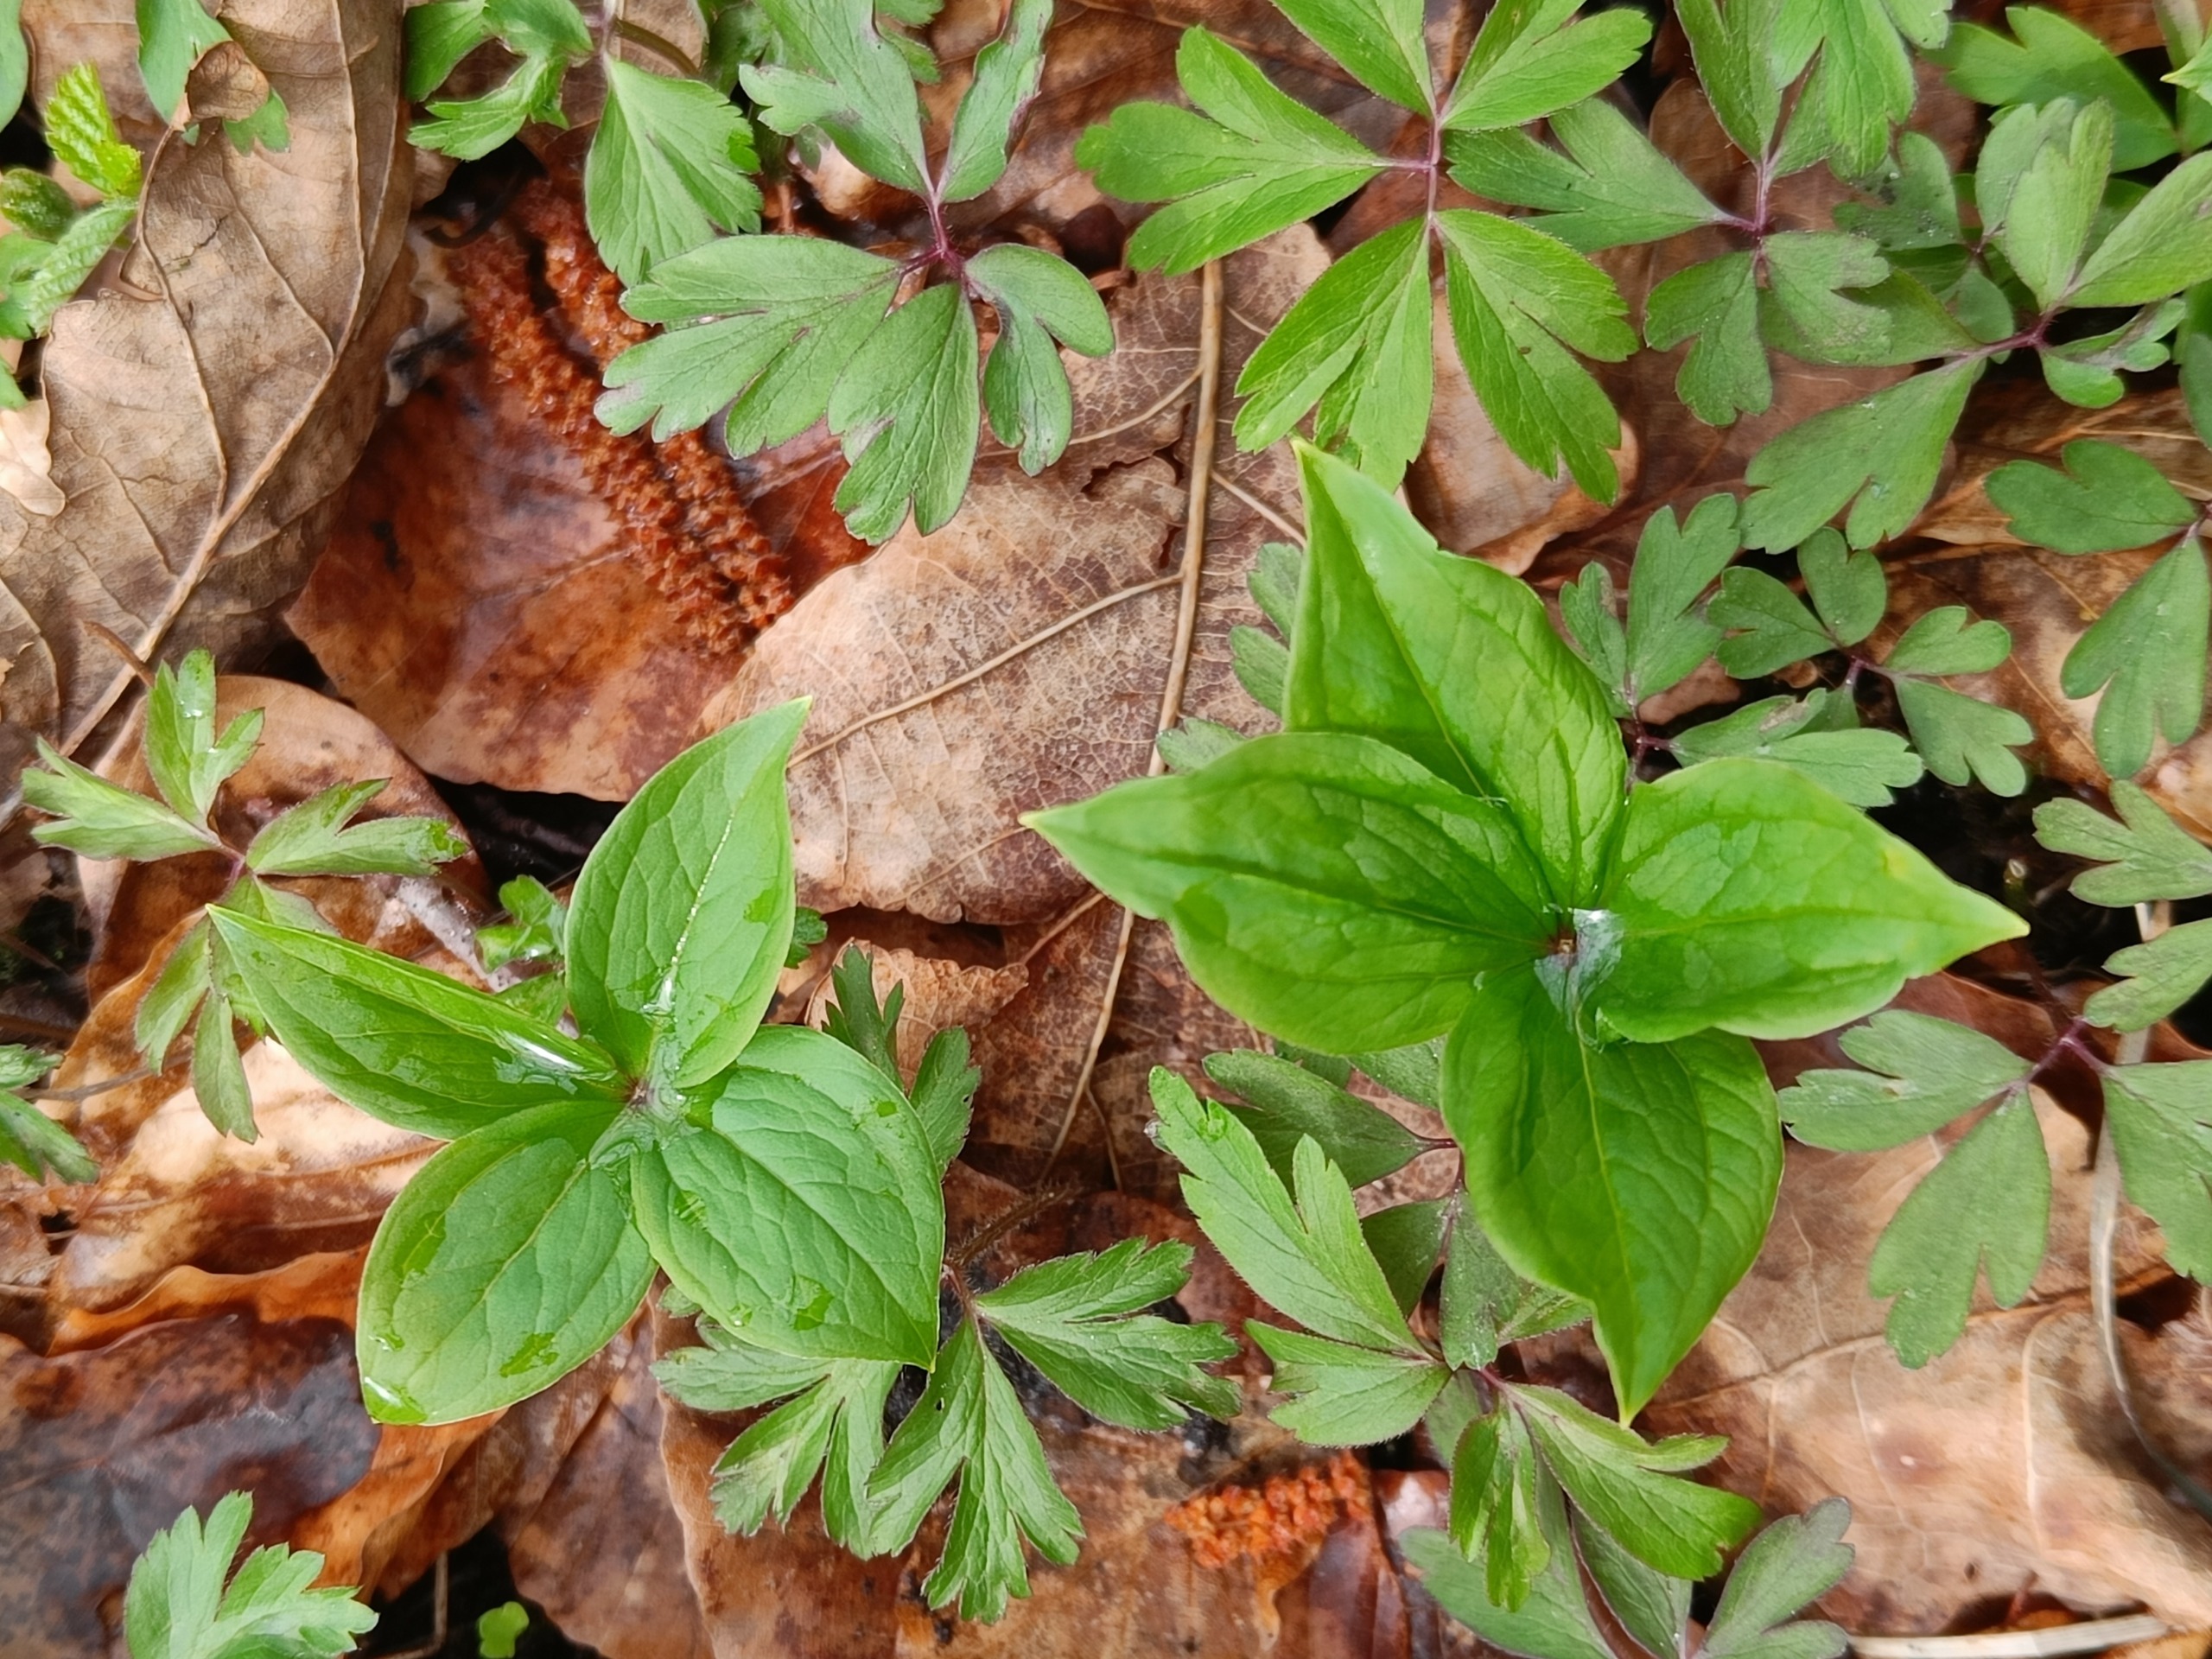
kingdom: Plantae
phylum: Tracheophyta
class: Liliopsida
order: Liliales
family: Melanthiaceae
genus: Paris
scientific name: Paris quadrifolia
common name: Firblad
